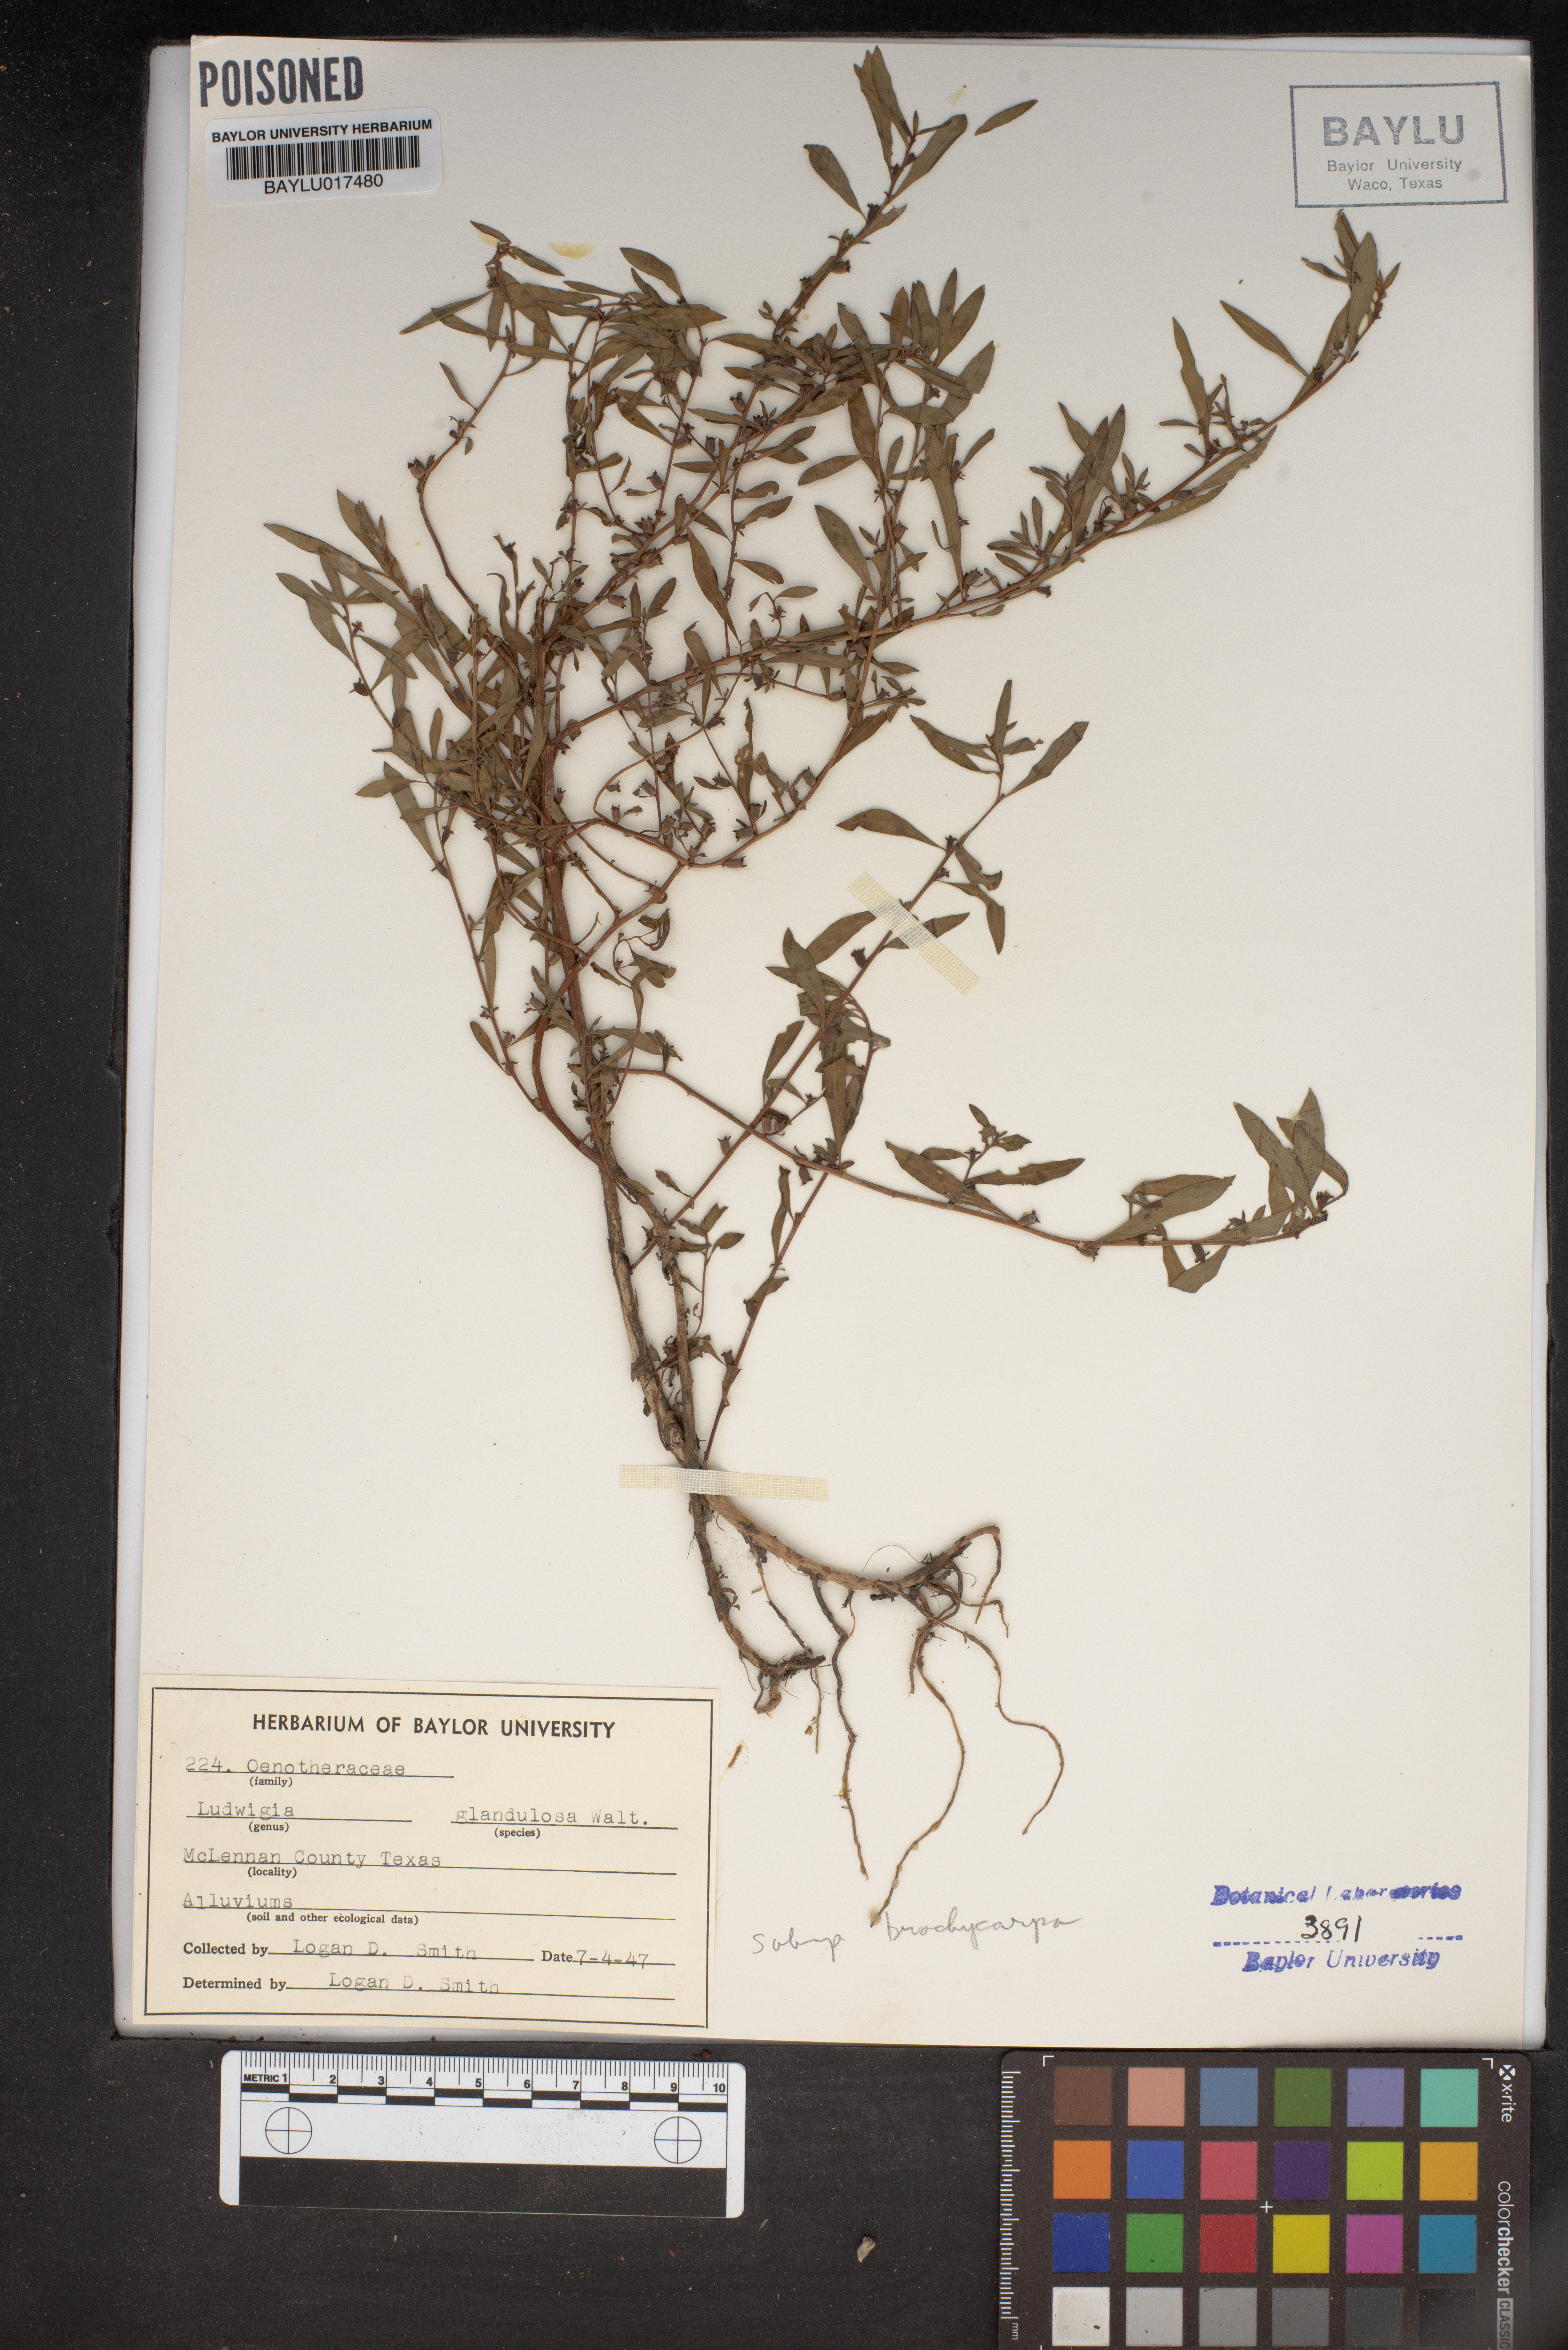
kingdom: Plantae
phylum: Tracheophyta
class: Magnoliopsida
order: Myrtales
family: Onagraceae
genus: Ludwigia
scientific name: Ludwigia glandulosa
